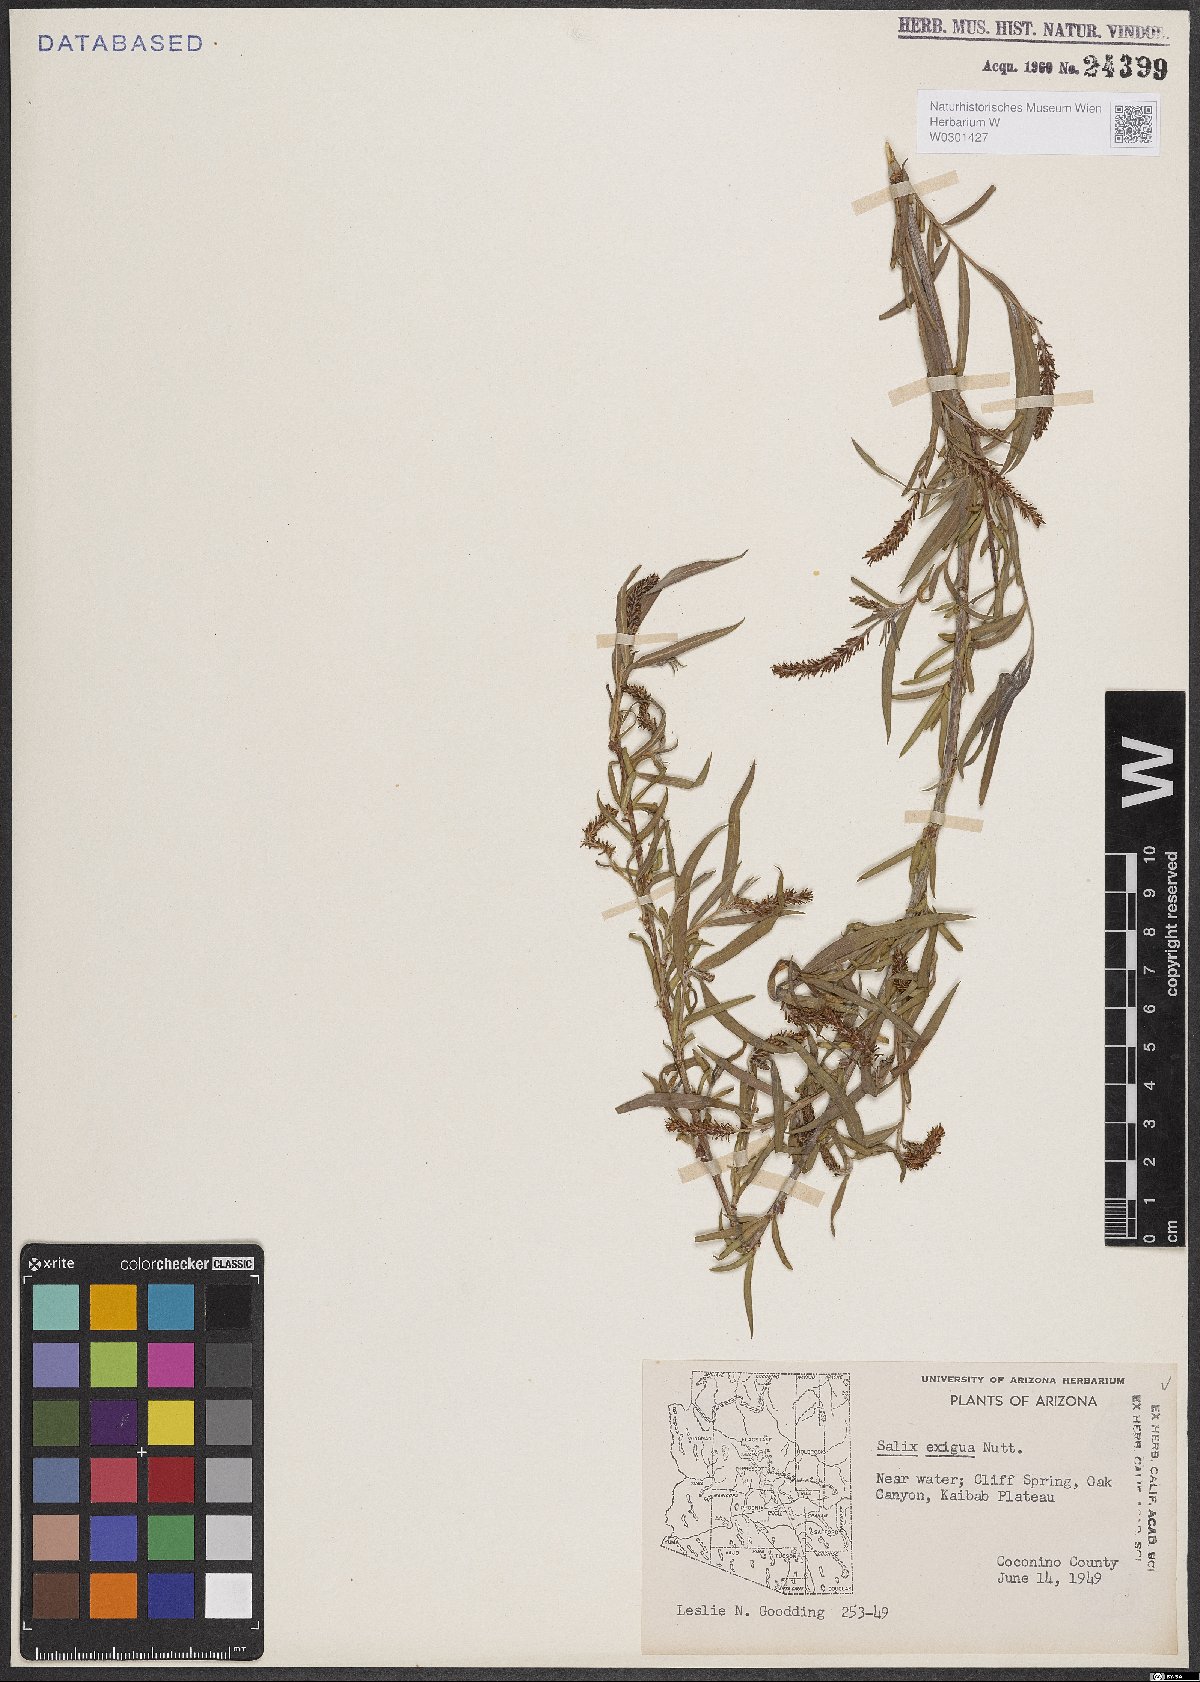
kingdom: Plantae
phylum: Tracheophyta
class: Magnoliopsida
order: Malpighiales
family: Salicaceae
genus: Salix
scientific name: Salix exigua
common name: Coyote willow
